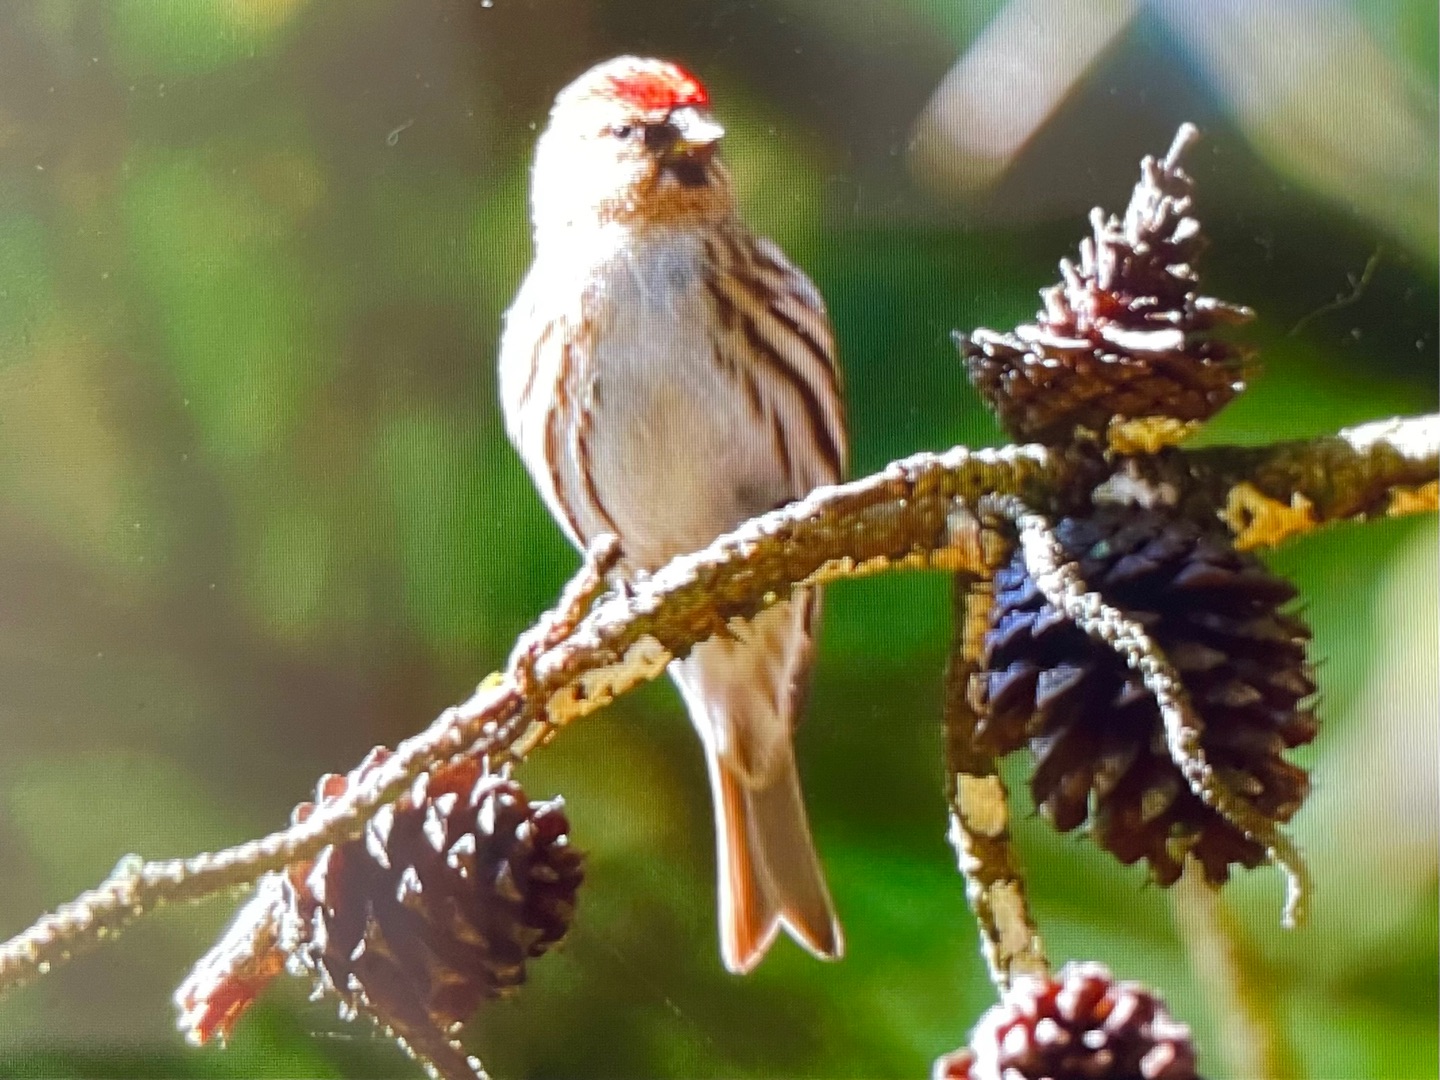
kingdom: Animalia
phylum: Chordata
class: Aves
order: Passeriformes
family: Fringillidae
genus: Acanthis
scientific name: Acanthis flammea
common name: Lille gråsisken
